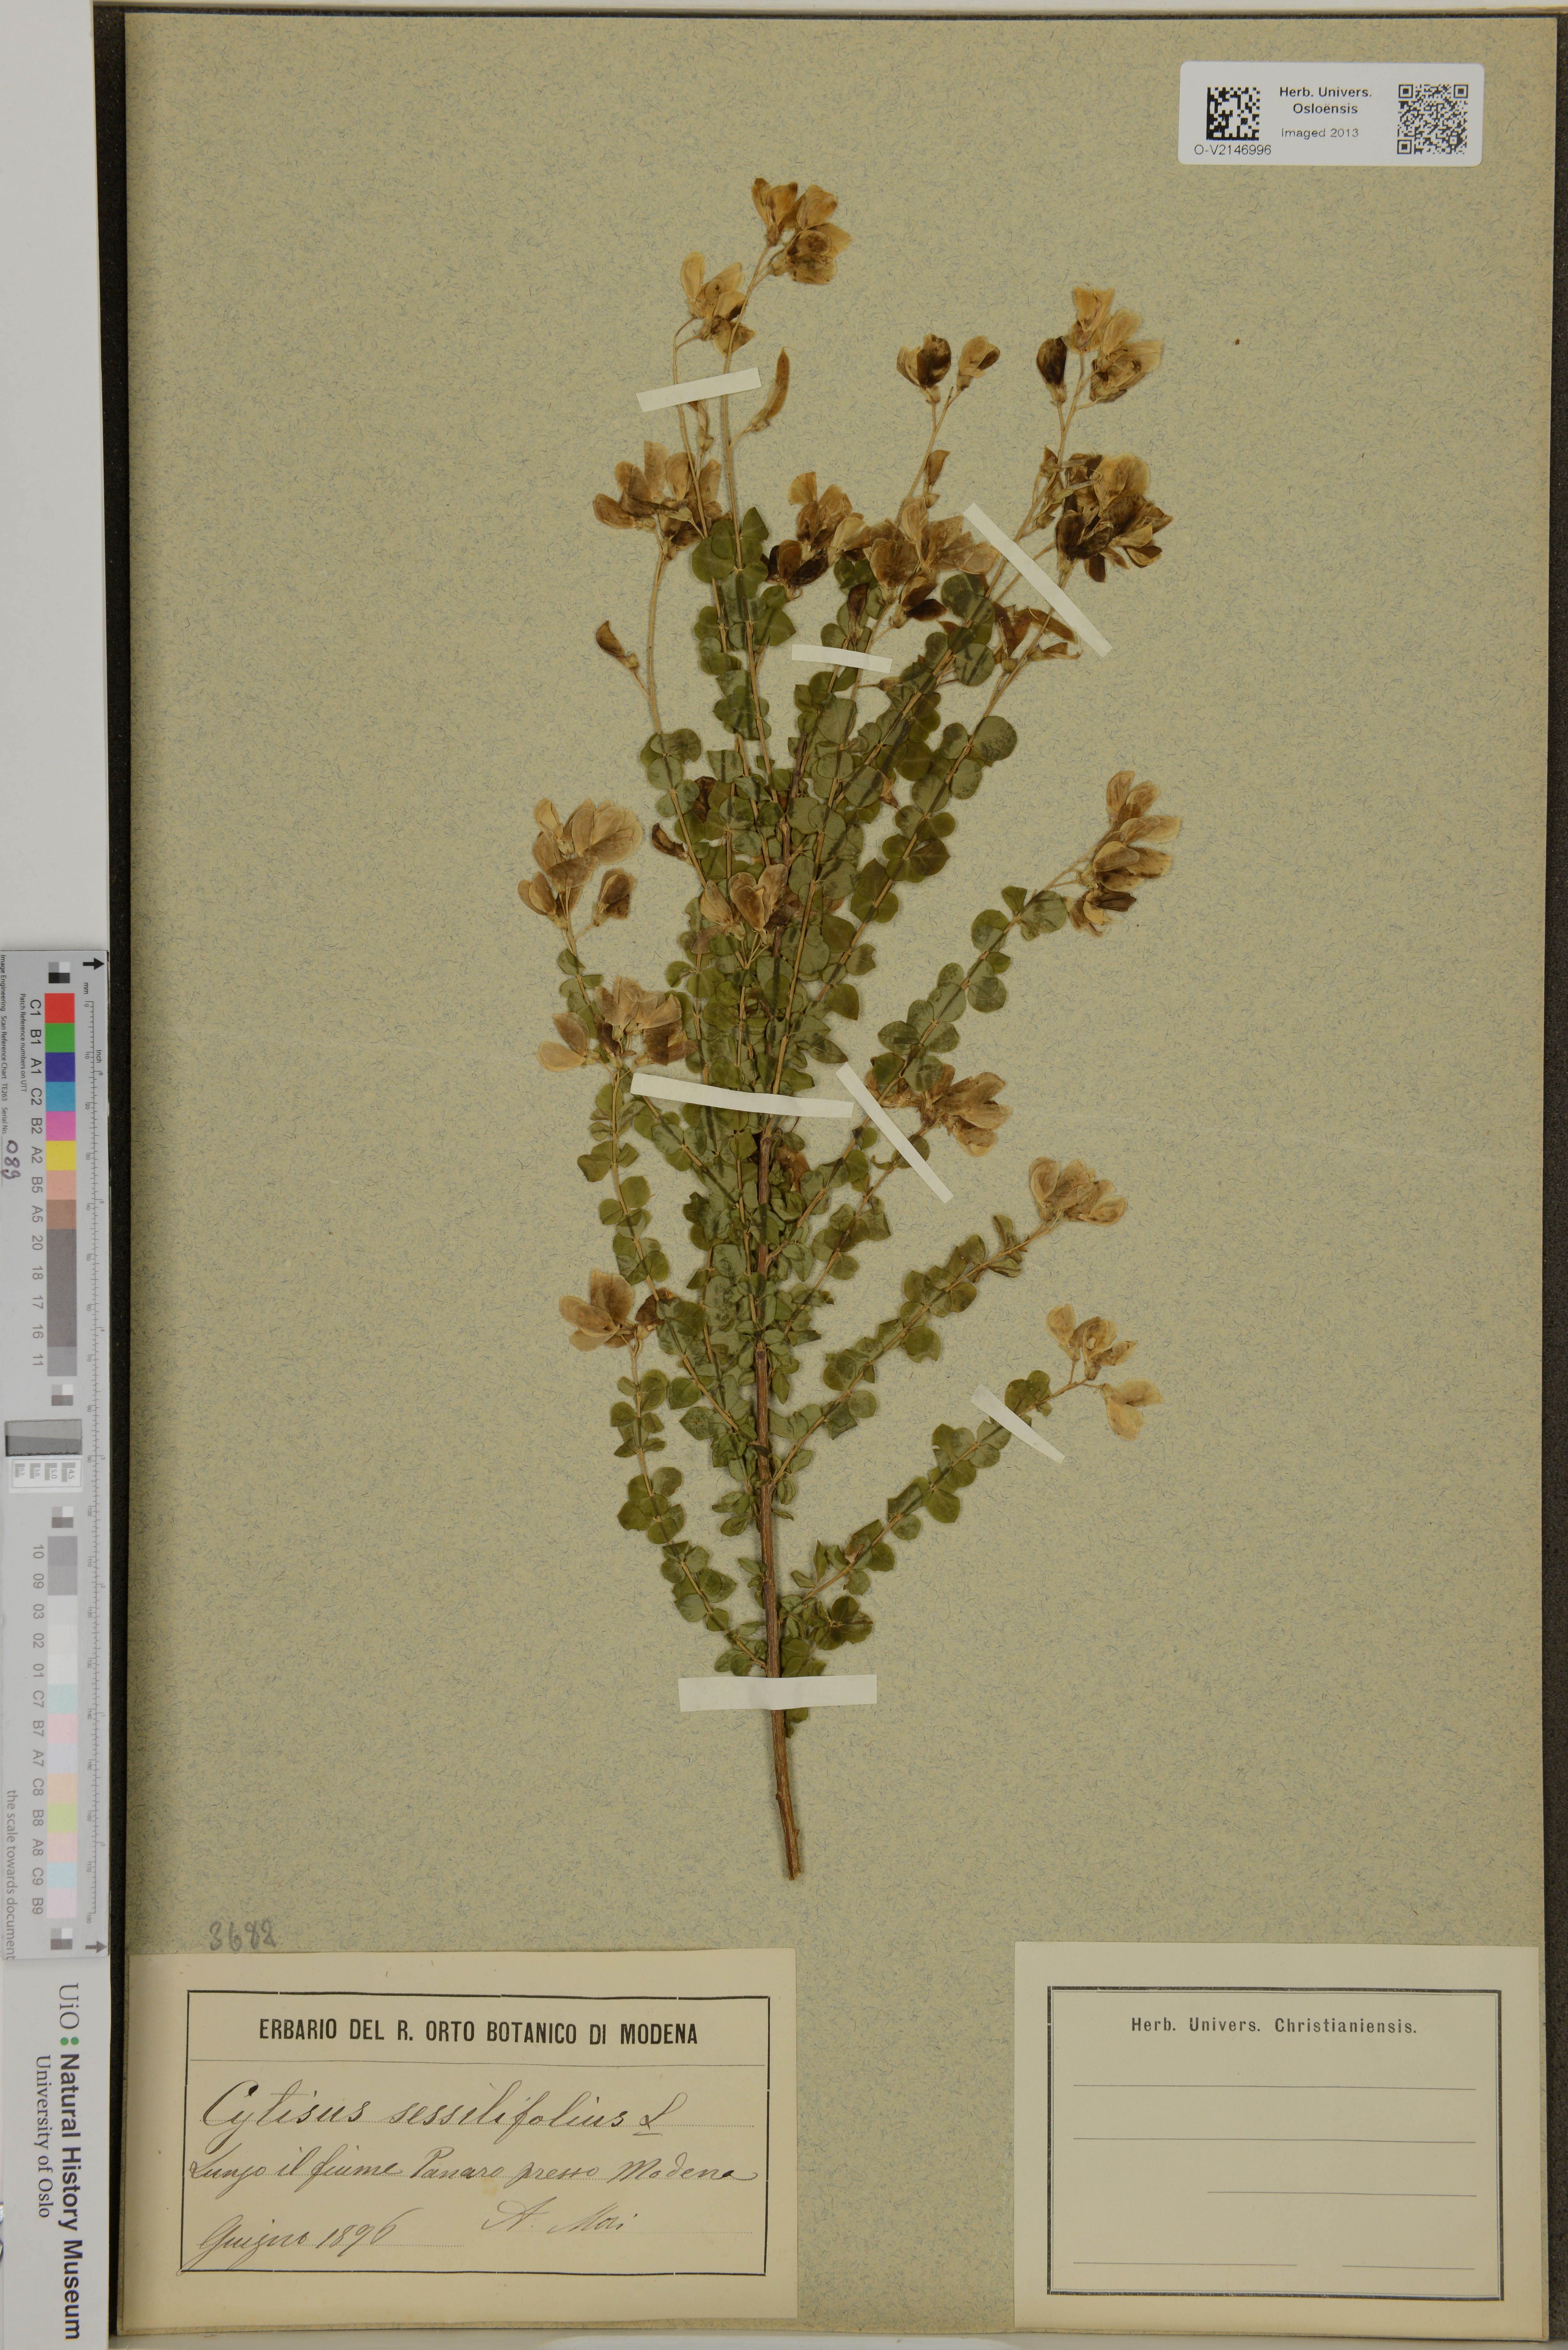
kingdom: Plantae
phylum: Tracheophyta
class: Magnoliopsida
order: Fabales
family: Fabaceae
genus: Cytisophyllum
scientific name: Cytisophyllum sessilifolium
